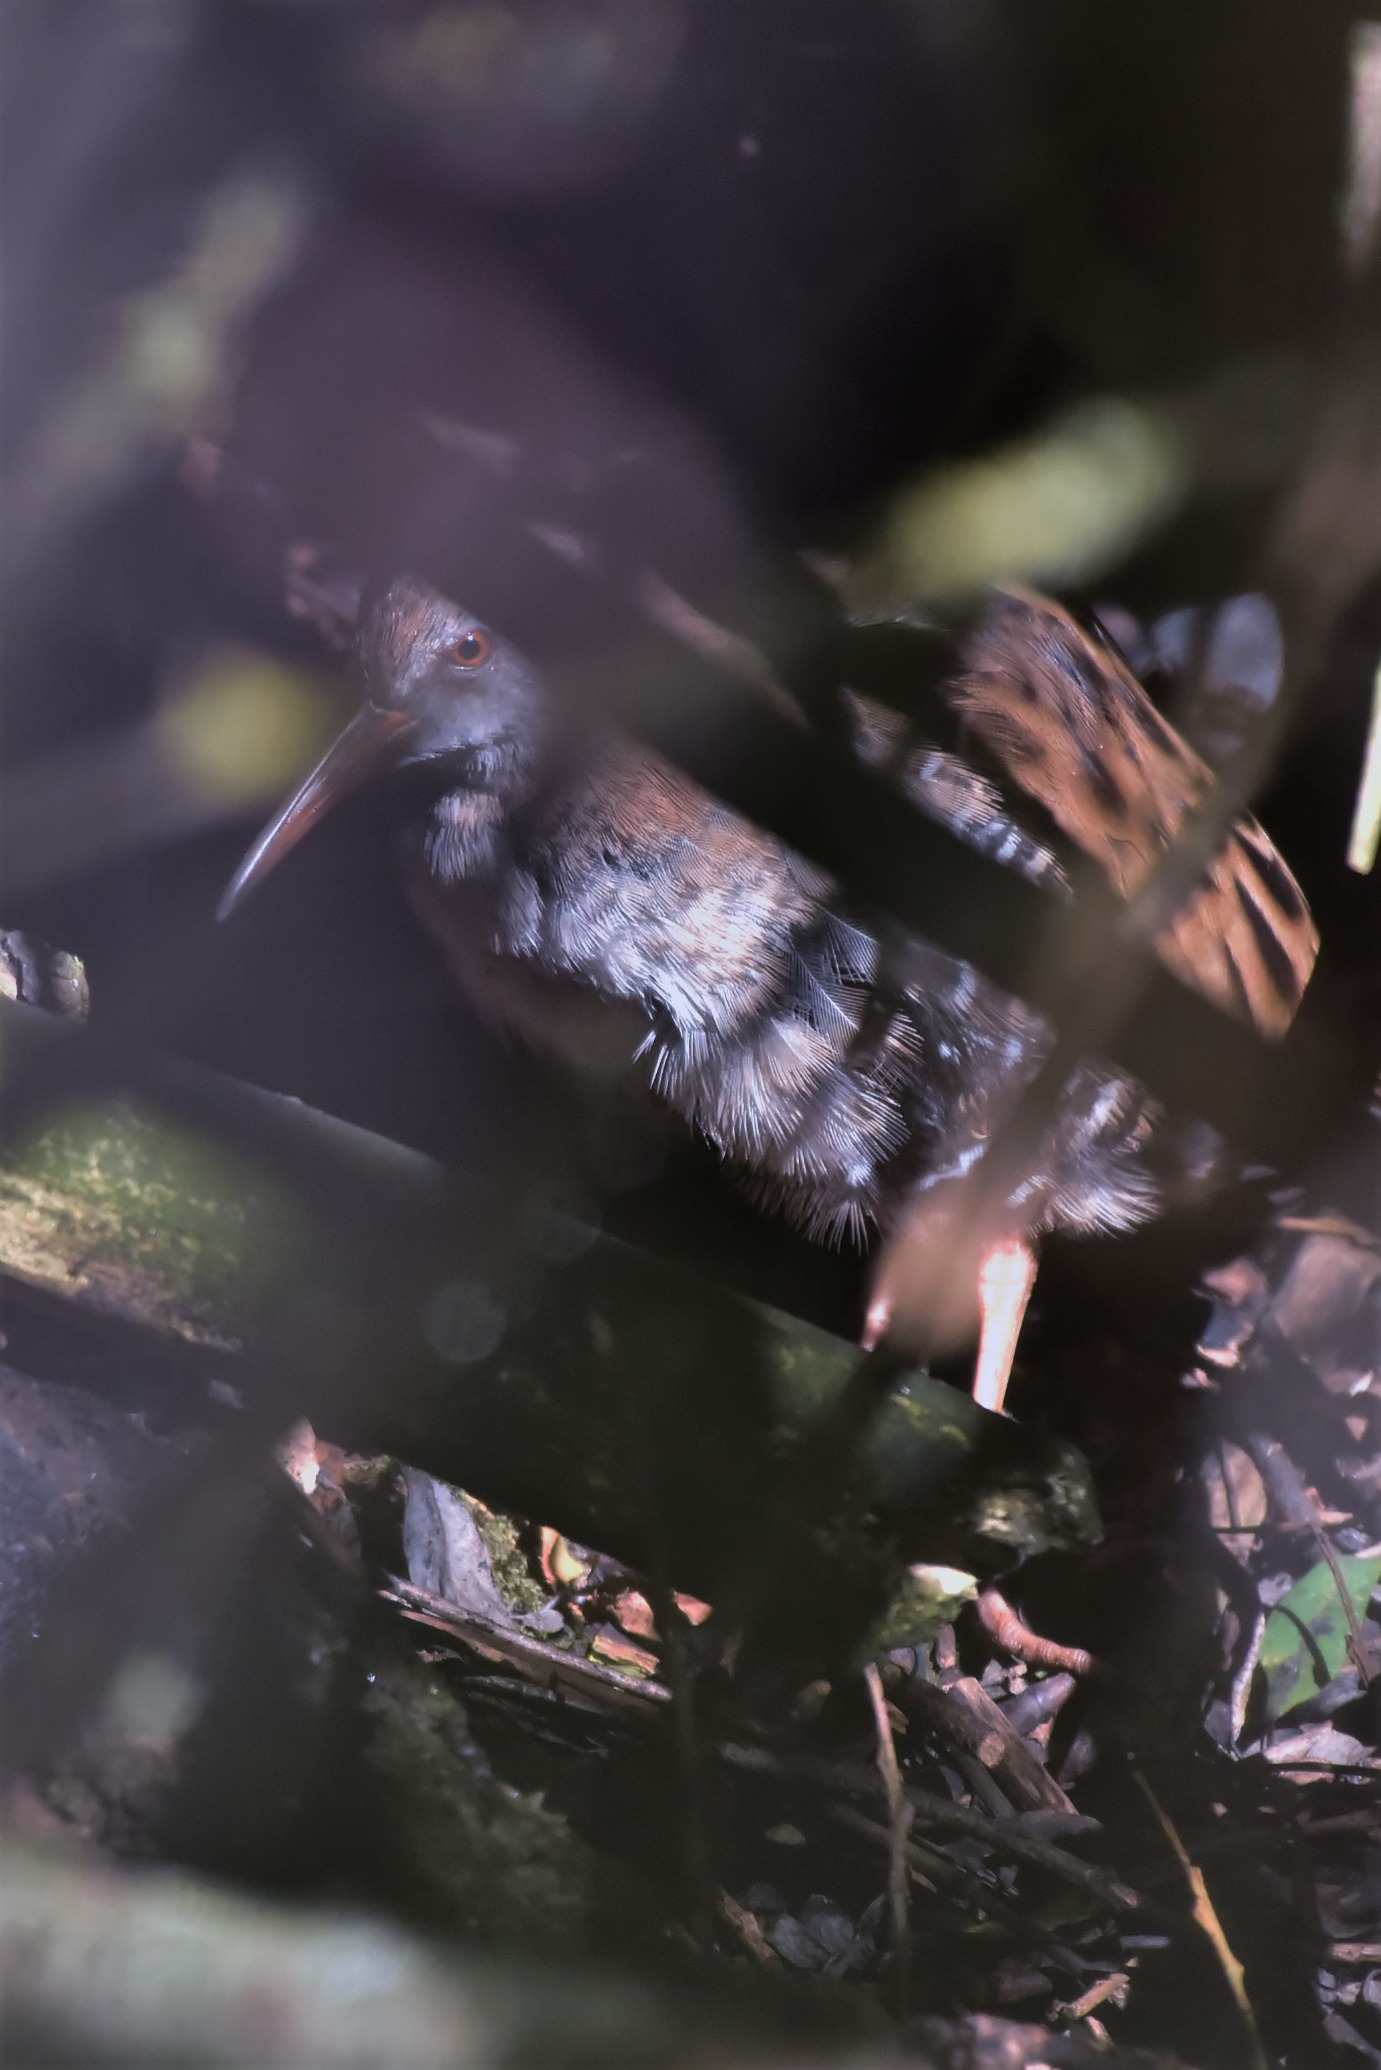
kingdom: Animalia
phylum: Chordata
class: Aves
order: Gruiformes
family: Rallidae
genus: Rallus
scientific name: Rallus aquaticus
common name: Vandrikse
